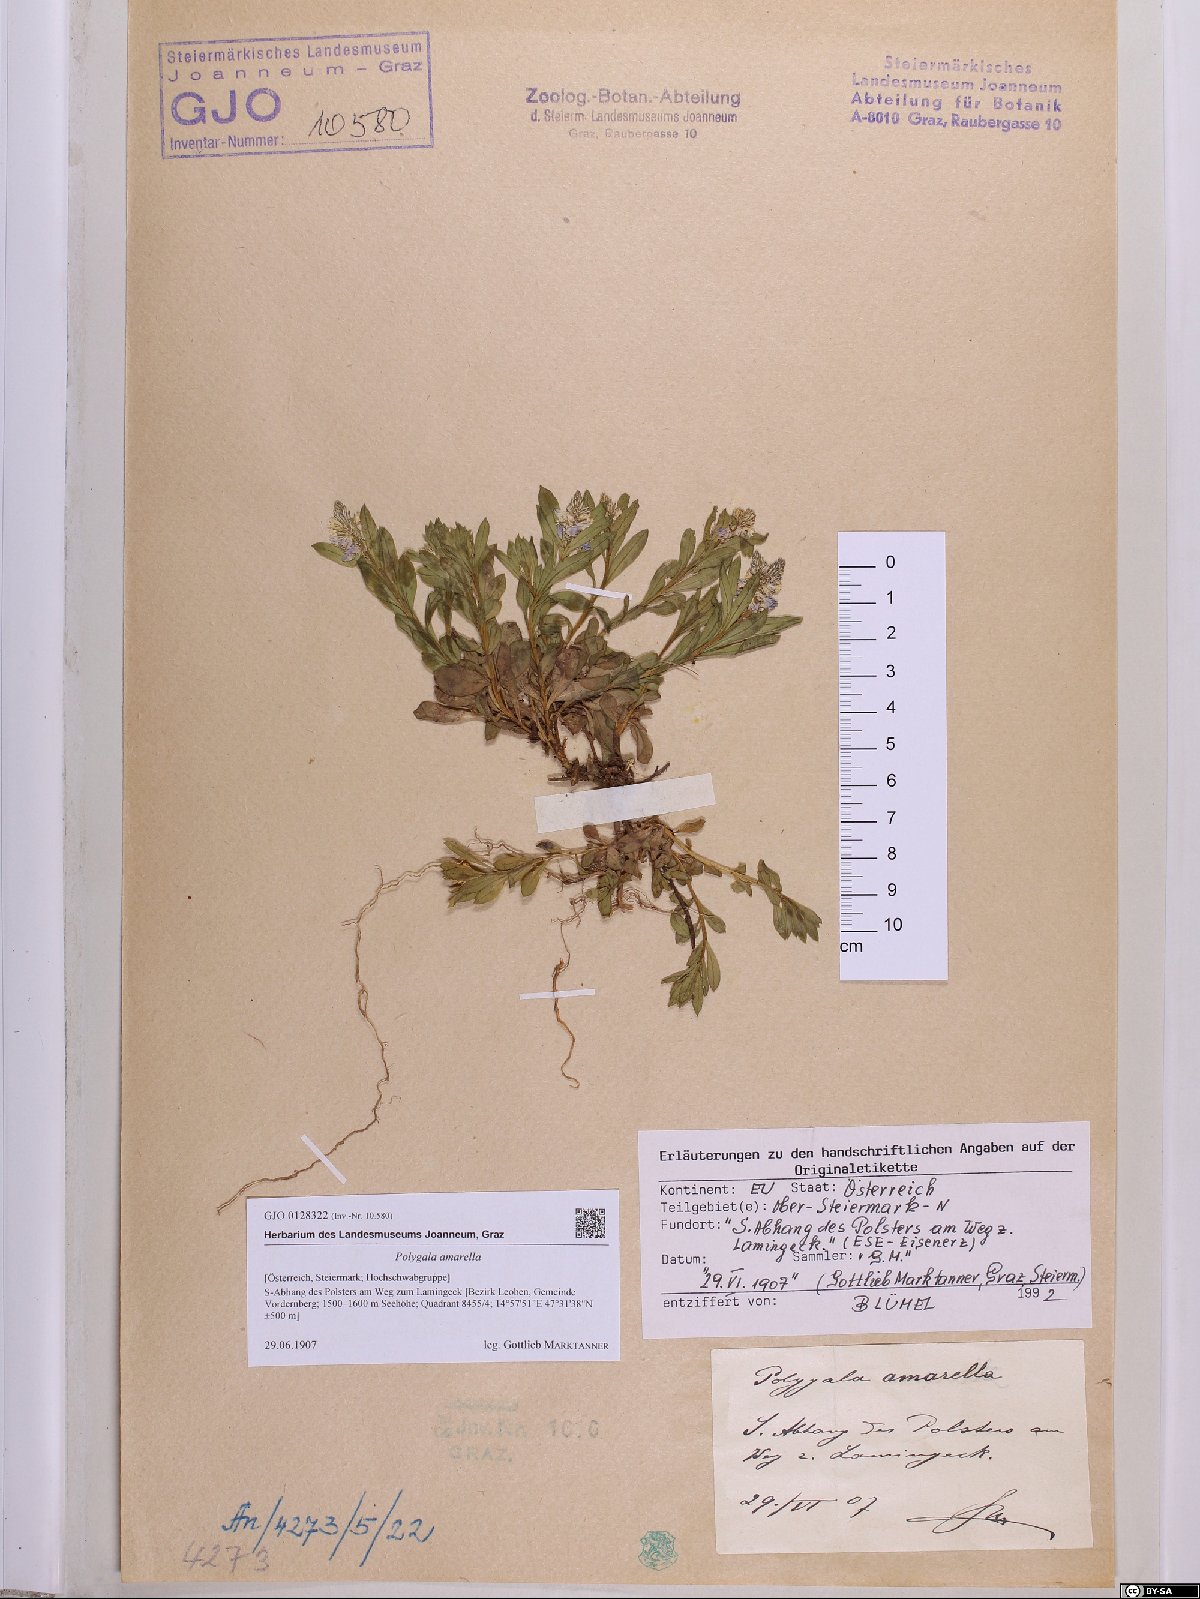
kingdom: Plantae
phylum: Tracheophyta
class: Magnoliopsida
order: Fabales
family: Polygalaceae
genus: Polygala
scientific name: Polygala amarella
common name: Dwarf milkwort
